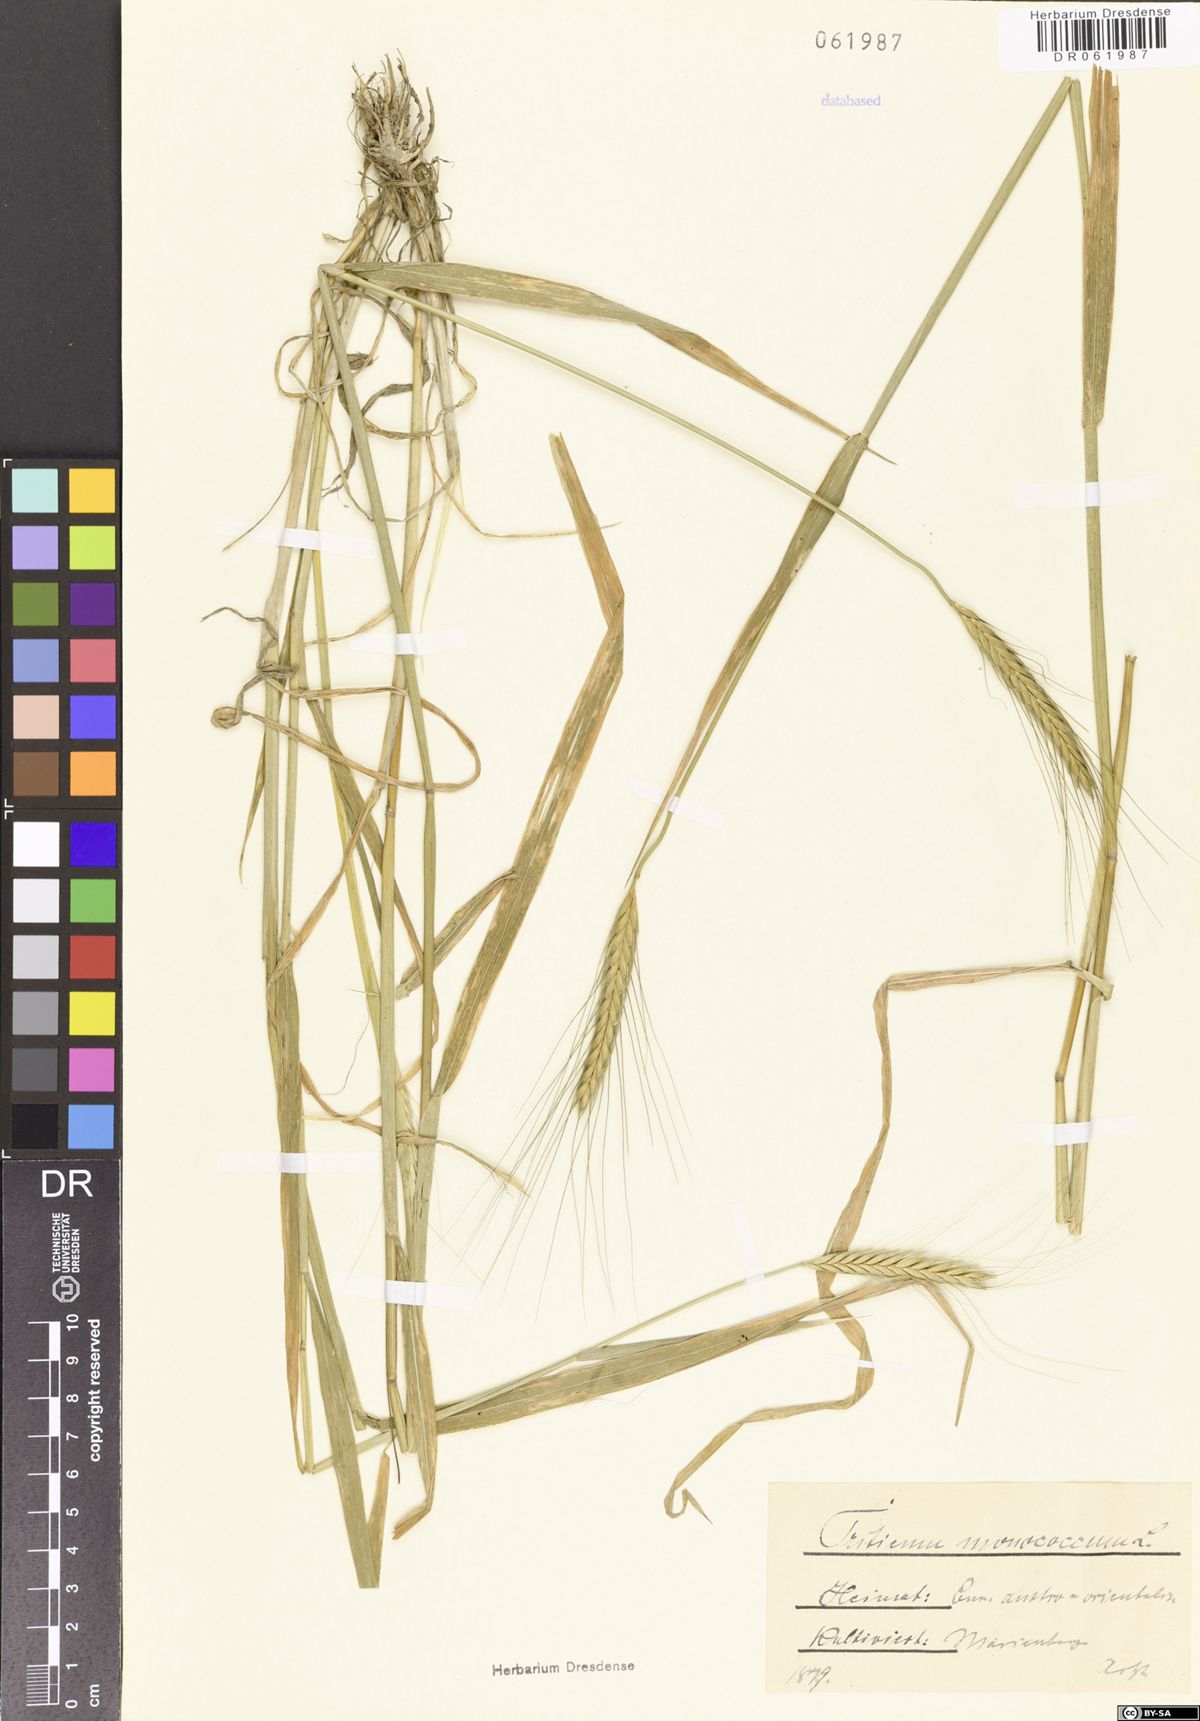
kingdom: Plantae
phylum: Tracheophyta
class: Liliopsida
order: Poales
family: Poaceae
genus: Triticum
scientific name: Triticum monococcum
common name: Einkorn
